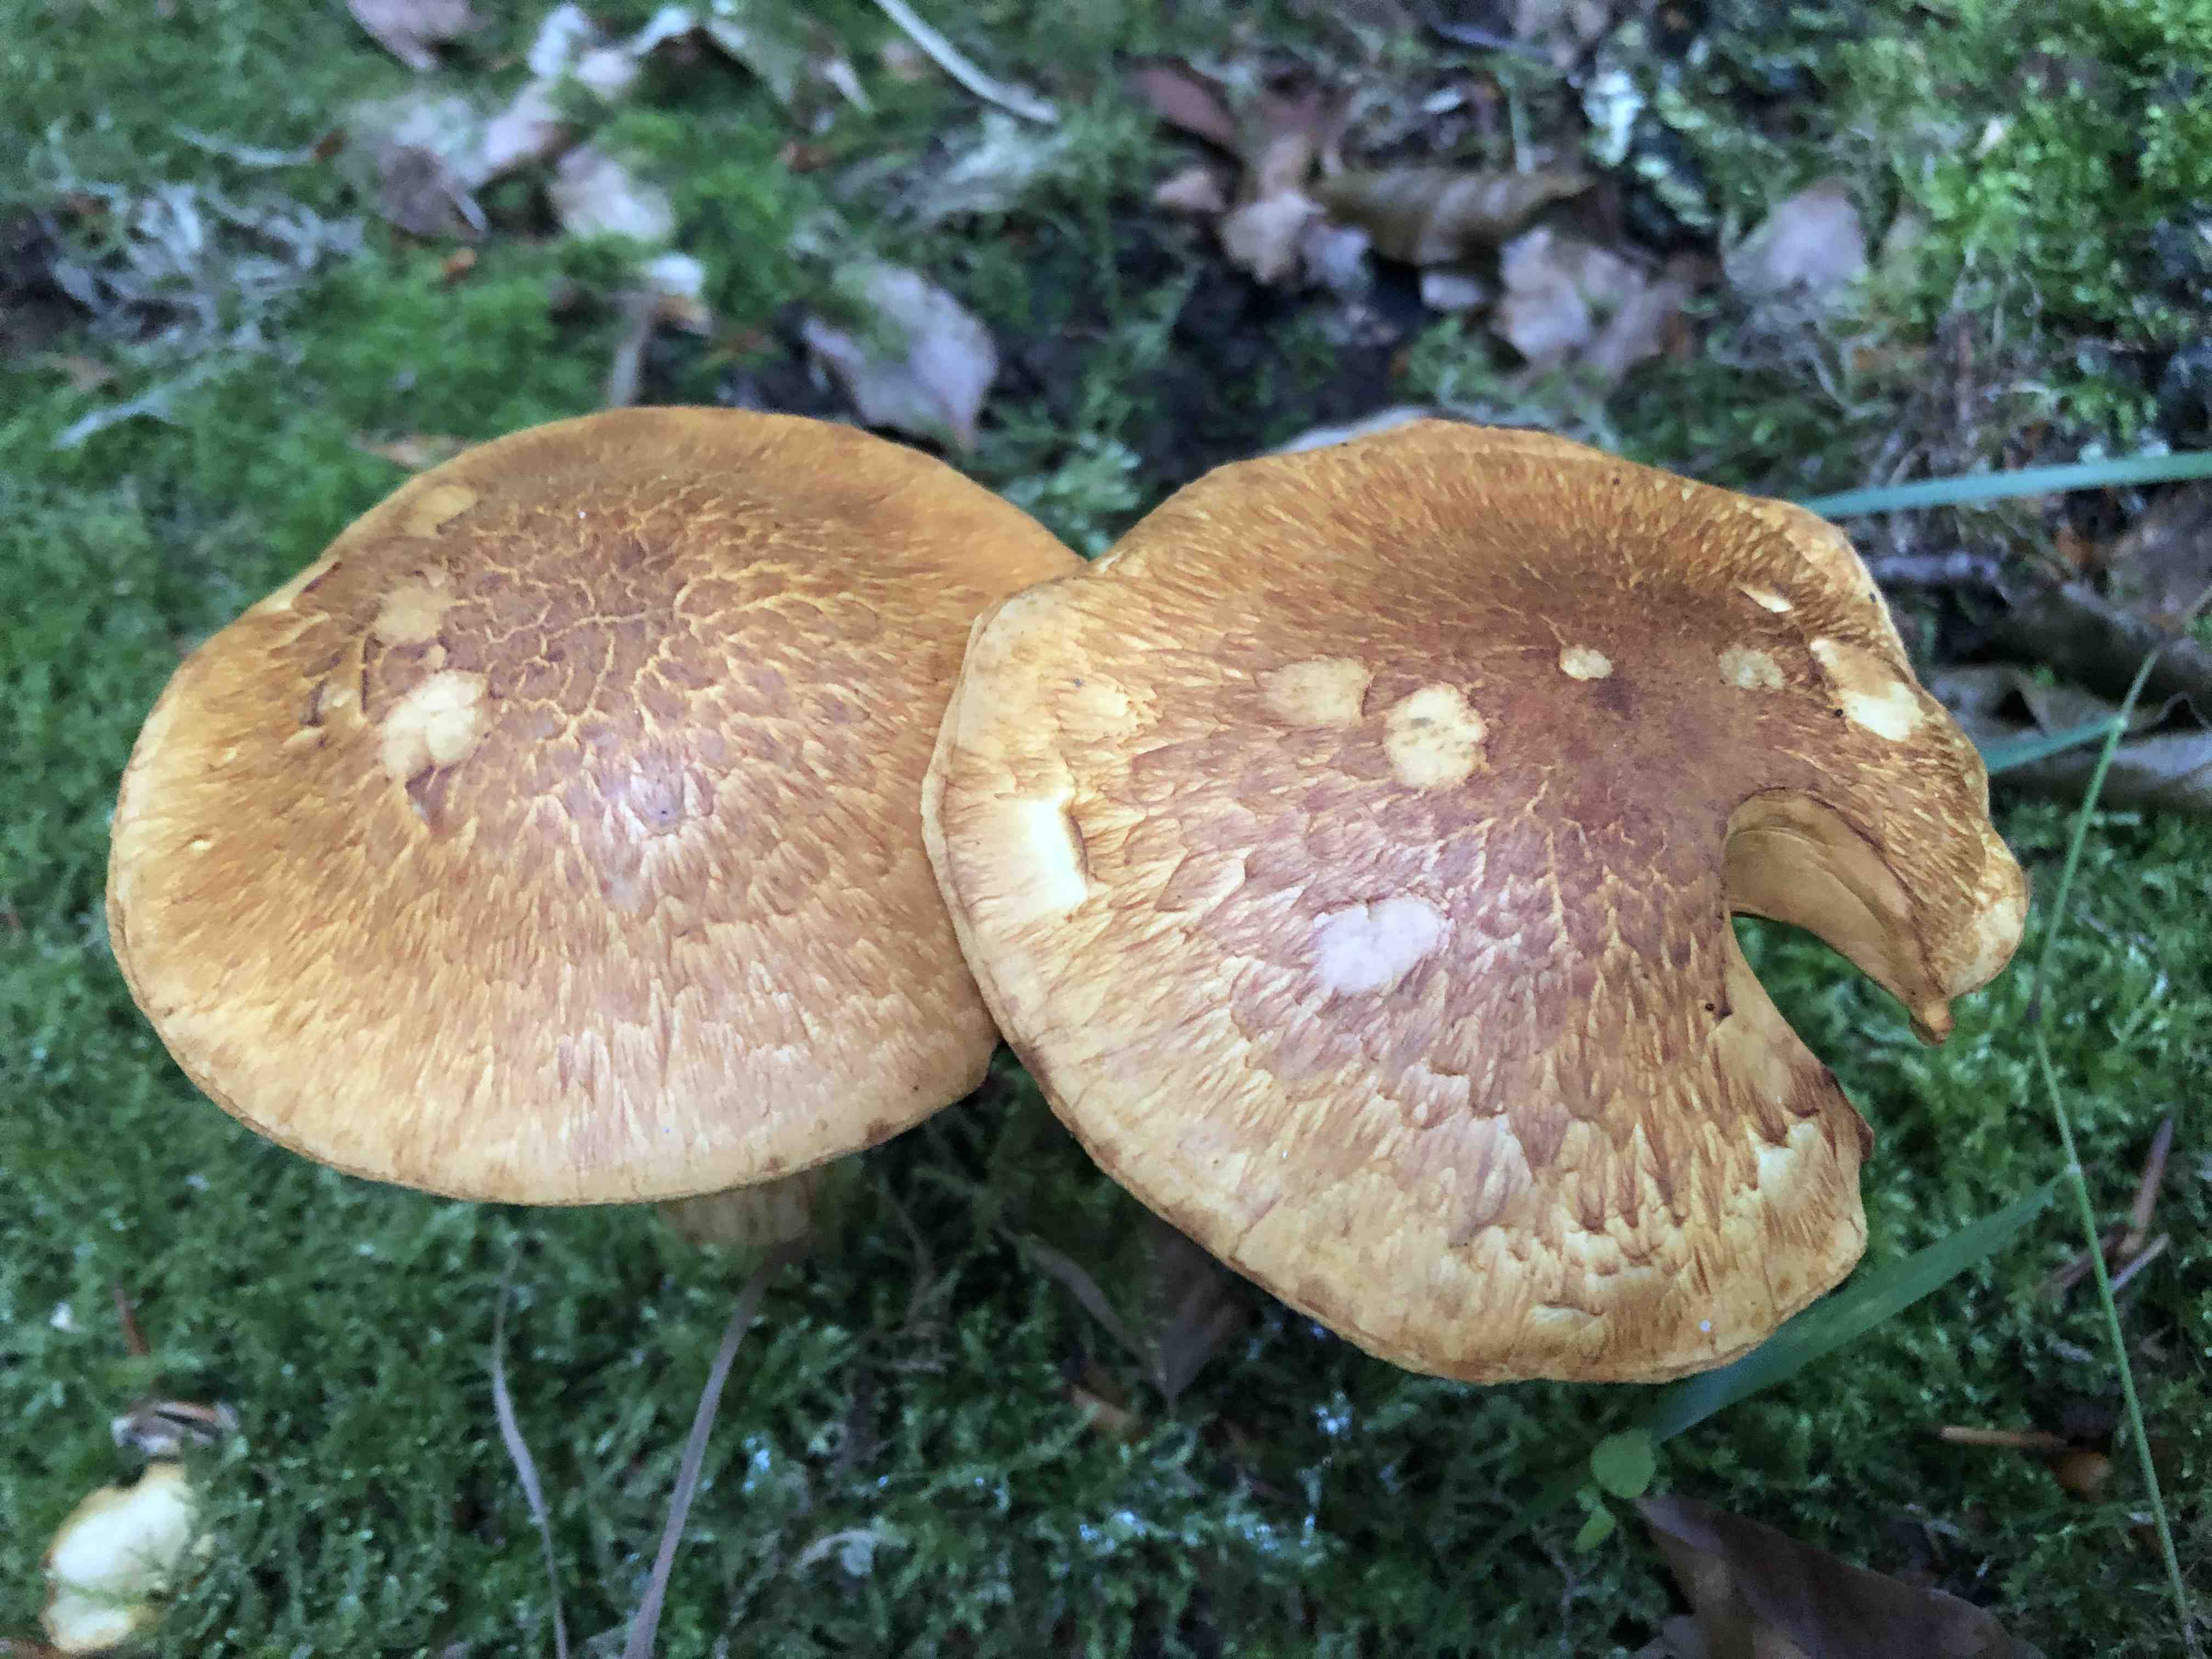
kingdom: Fungi
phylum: Basidiomycota
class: Agaricomycetes
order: Agaricales
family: Hymenogastraceae
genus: Gymnopilus
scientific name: Gymnopilus spectabilis
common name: fibret flammehat
